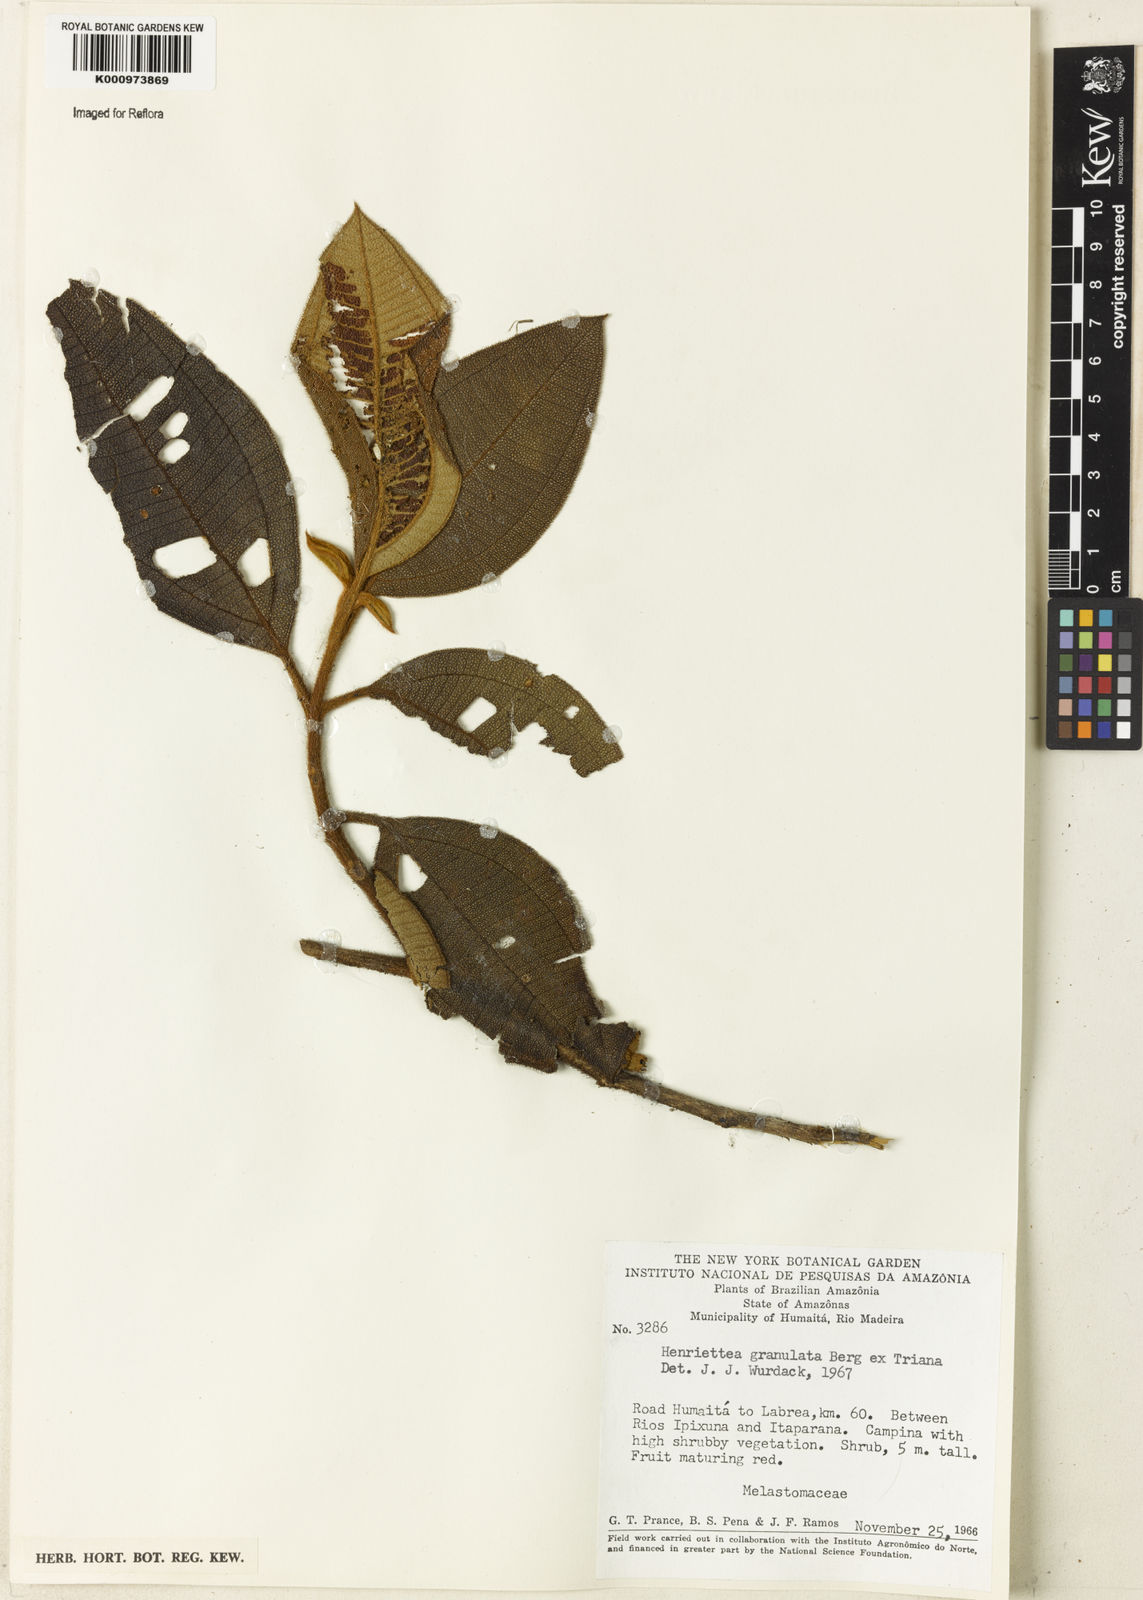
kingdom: Plantae
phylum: Tracheophyta
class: Magnoliopsida
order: Myrtales
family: Melastomataceae
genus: Henriettea
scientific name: Henriettea granulata
